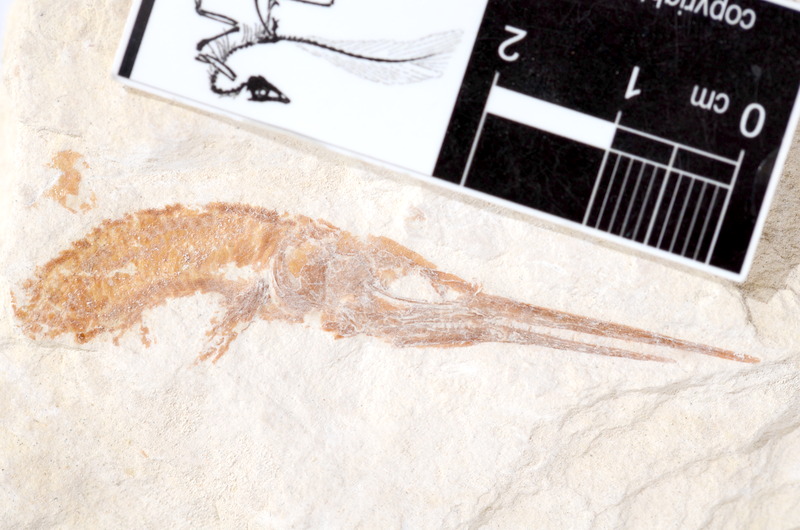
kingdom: Animalia
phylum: Chordata
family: Aspidorhynchidae
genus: Belonostomus
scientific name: Belonostomus tenuirostris
